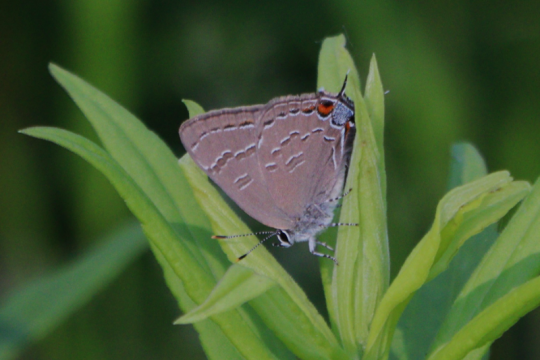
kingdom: Animalia
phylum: Arthropoda
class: Insecta
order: Lepidoptera
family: Lycaenidae
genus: Satyrium
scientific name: Satyrium calanus
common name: Banded Hairstreak
